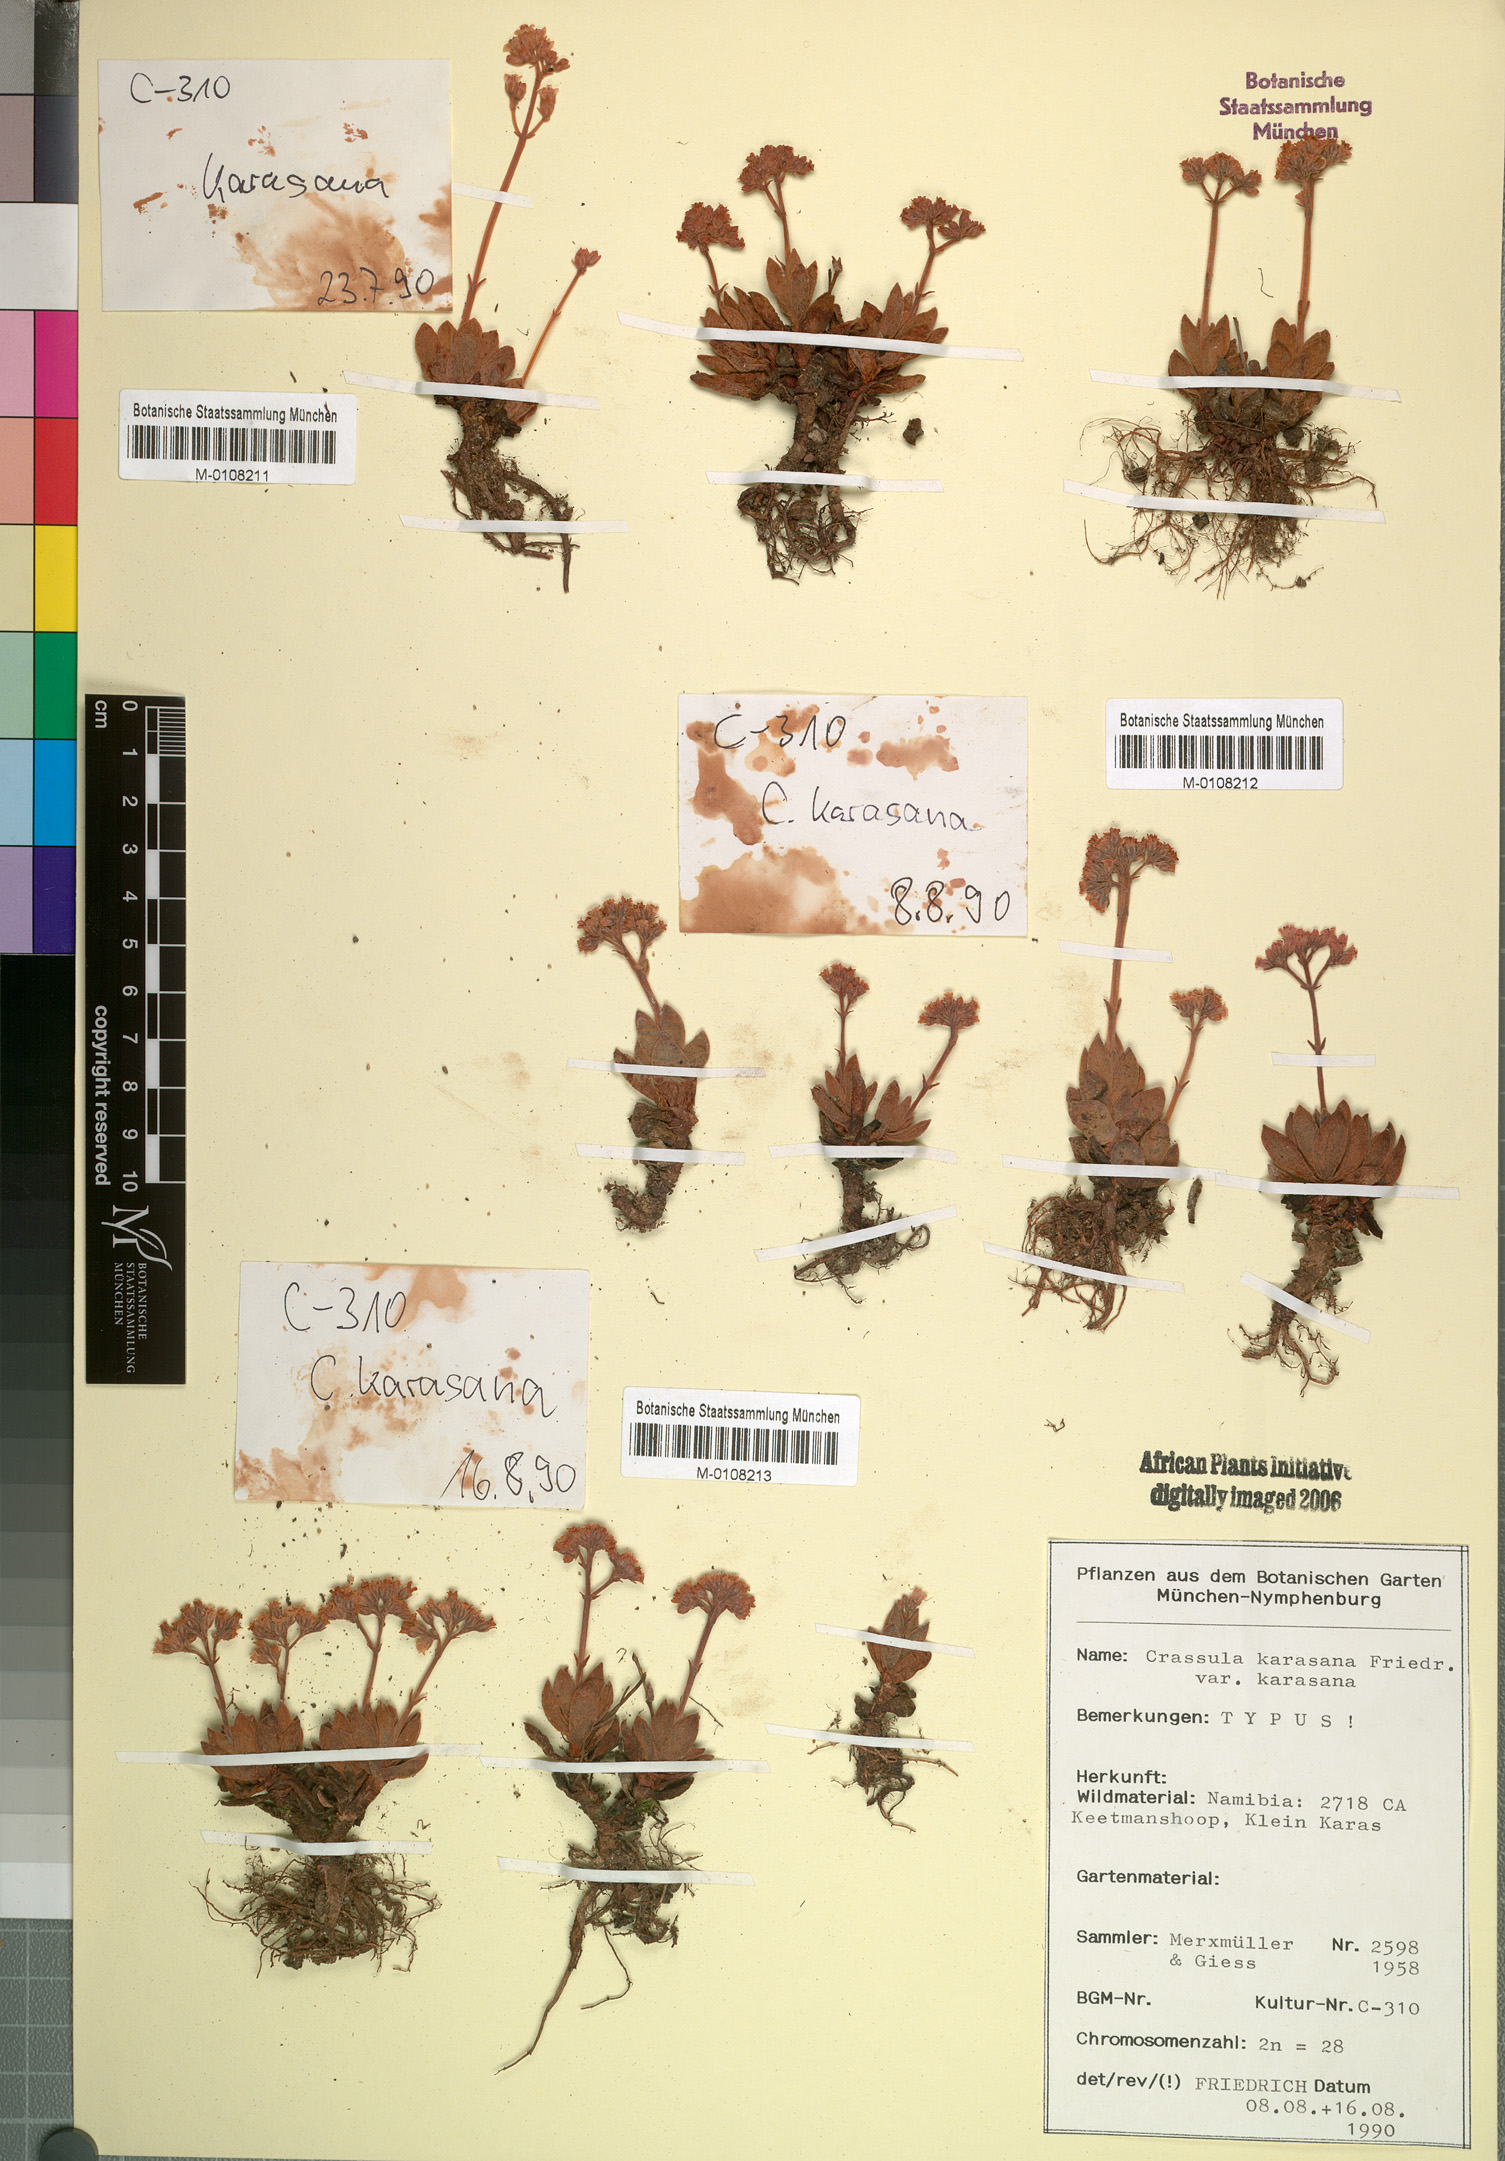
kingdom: Plantae
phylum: Tracheophyta
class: Magnoliopsida
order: Saxifragales
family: Crassulaceae
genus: Crassula
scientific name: Crassula ausensis
